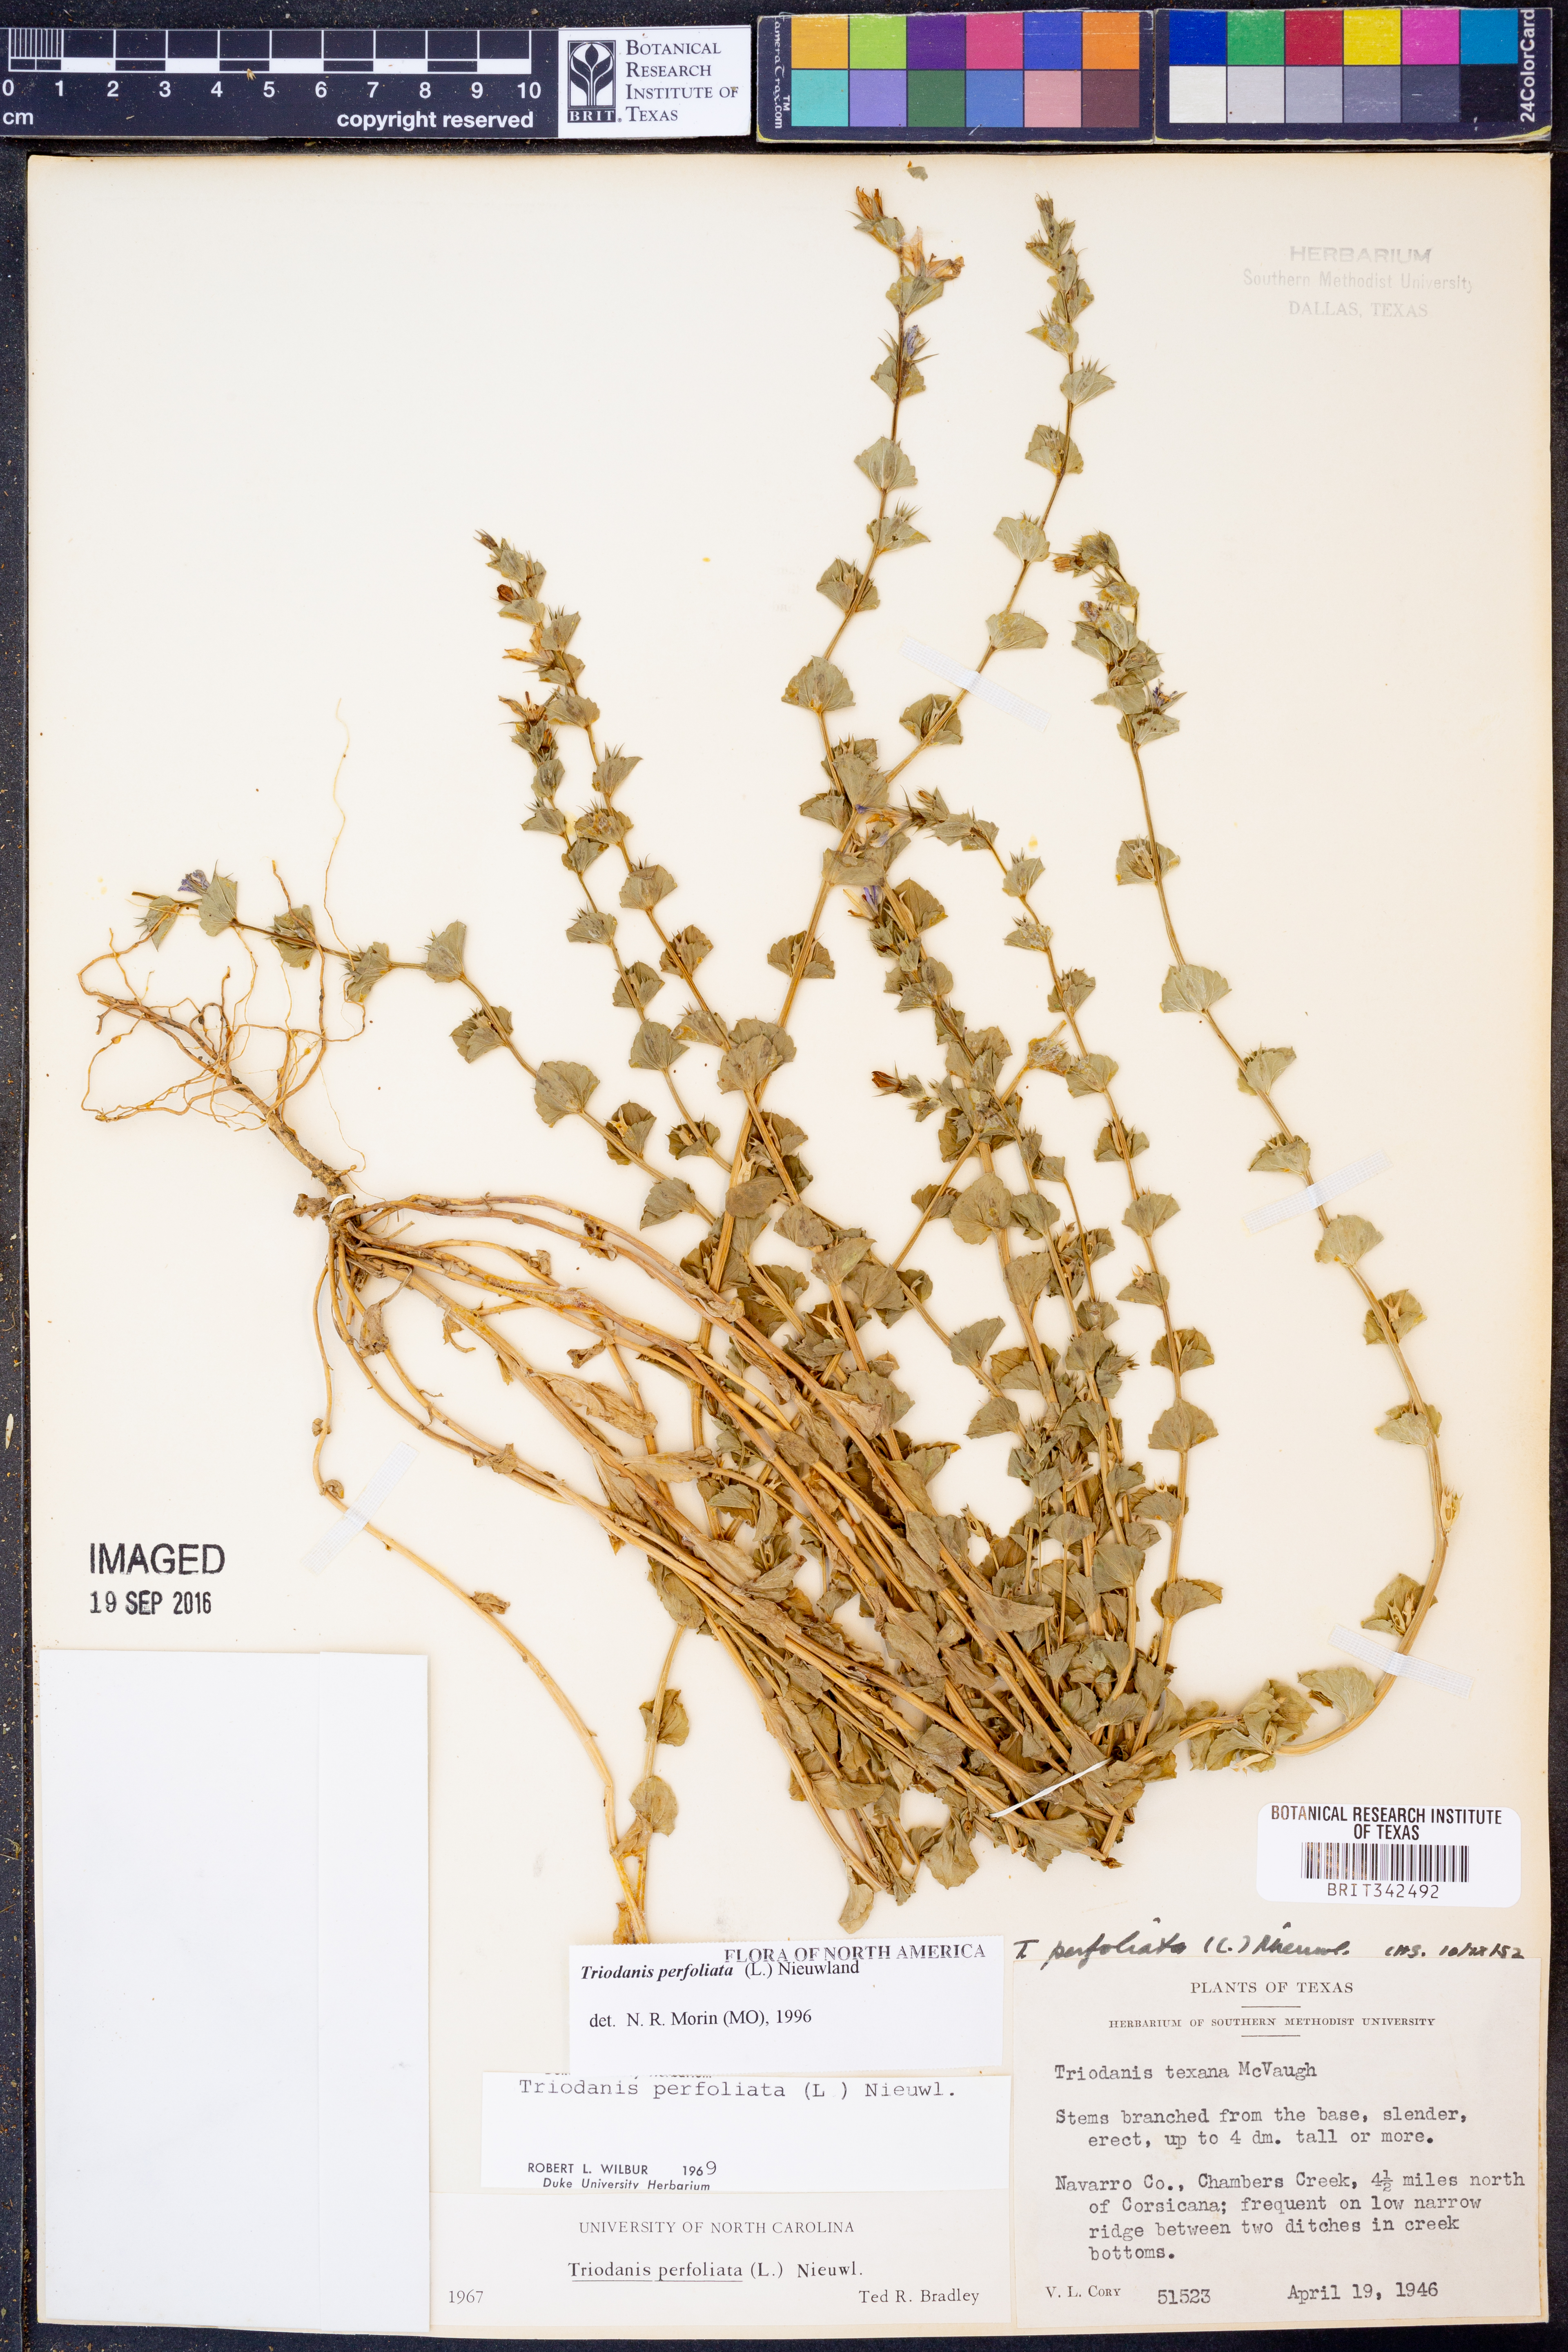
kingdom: Plantae
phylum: Tracheophyta
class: Magnoliopsida
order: Asterales
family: Campanulaceae
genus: Triodanis
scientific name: Triodanis perfoliata
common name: Clasping venus' looking-glass
